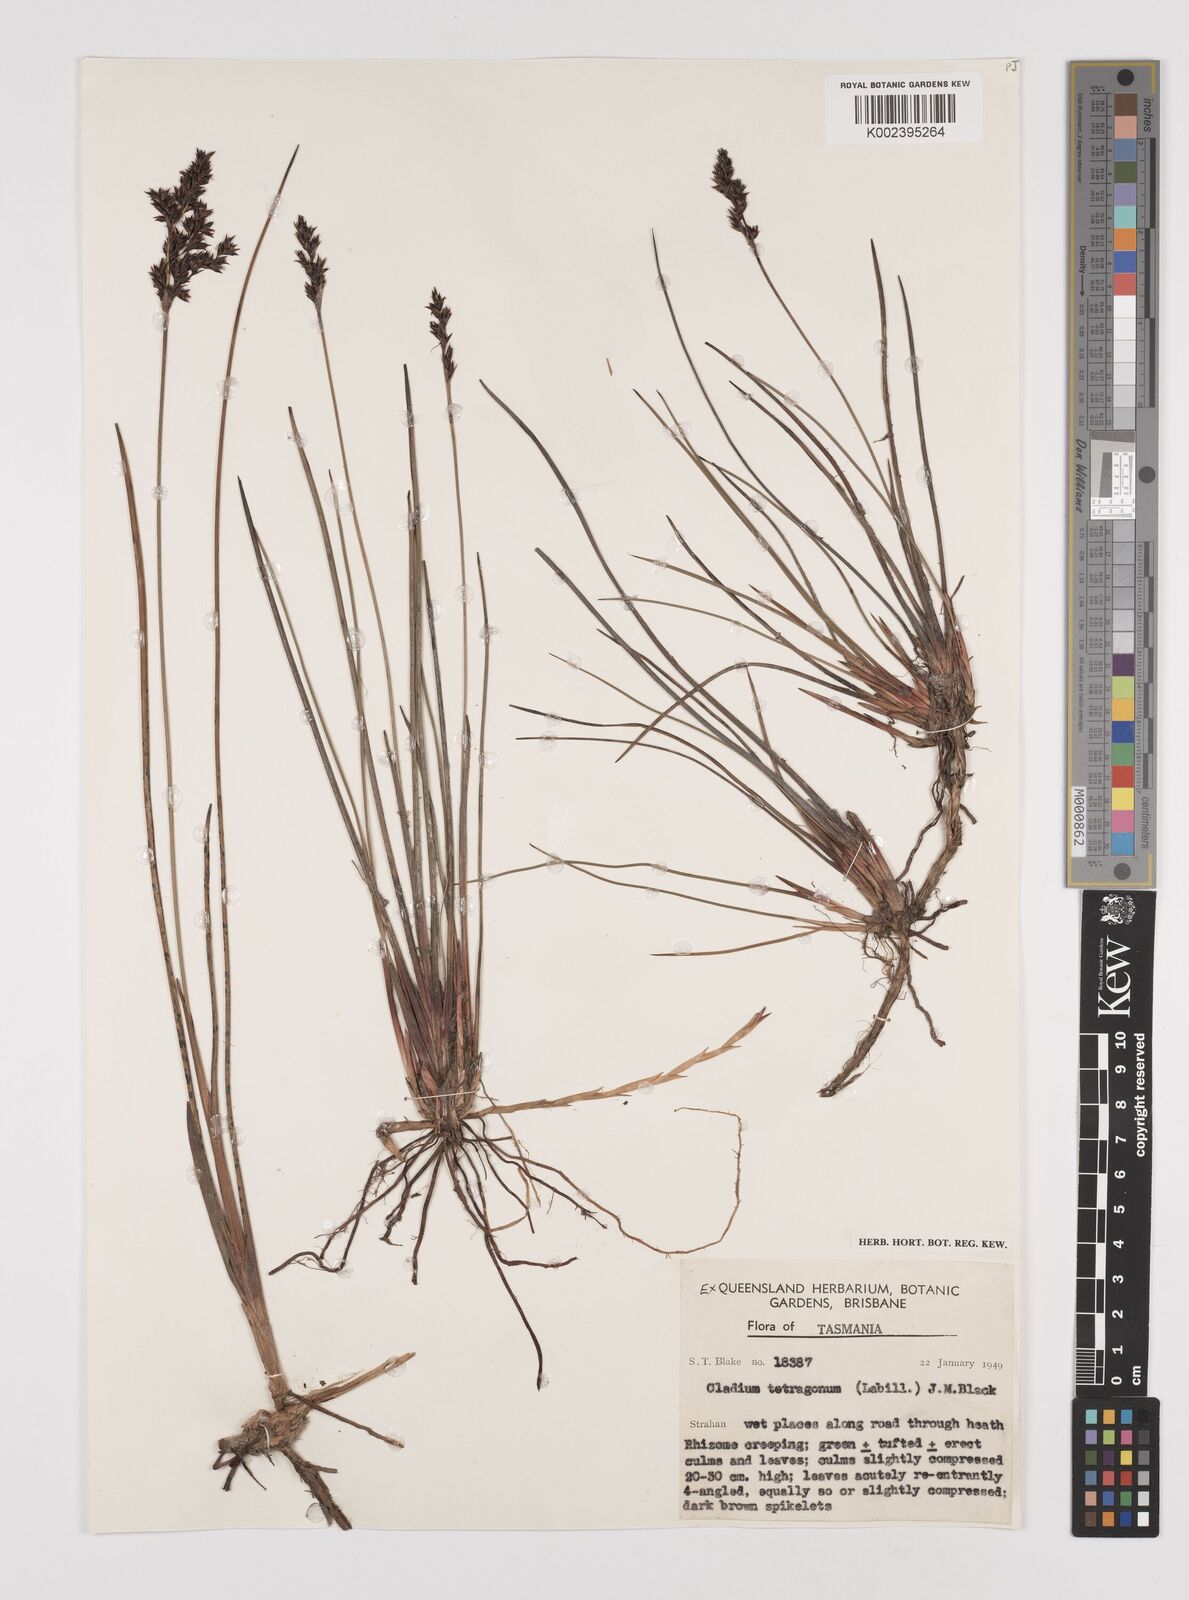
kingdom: Plantae
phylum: Tracheophyta
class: Liliopsida
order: Poales
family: Cyperaceae
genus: Machaerina
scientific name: Machaerina tetragona
